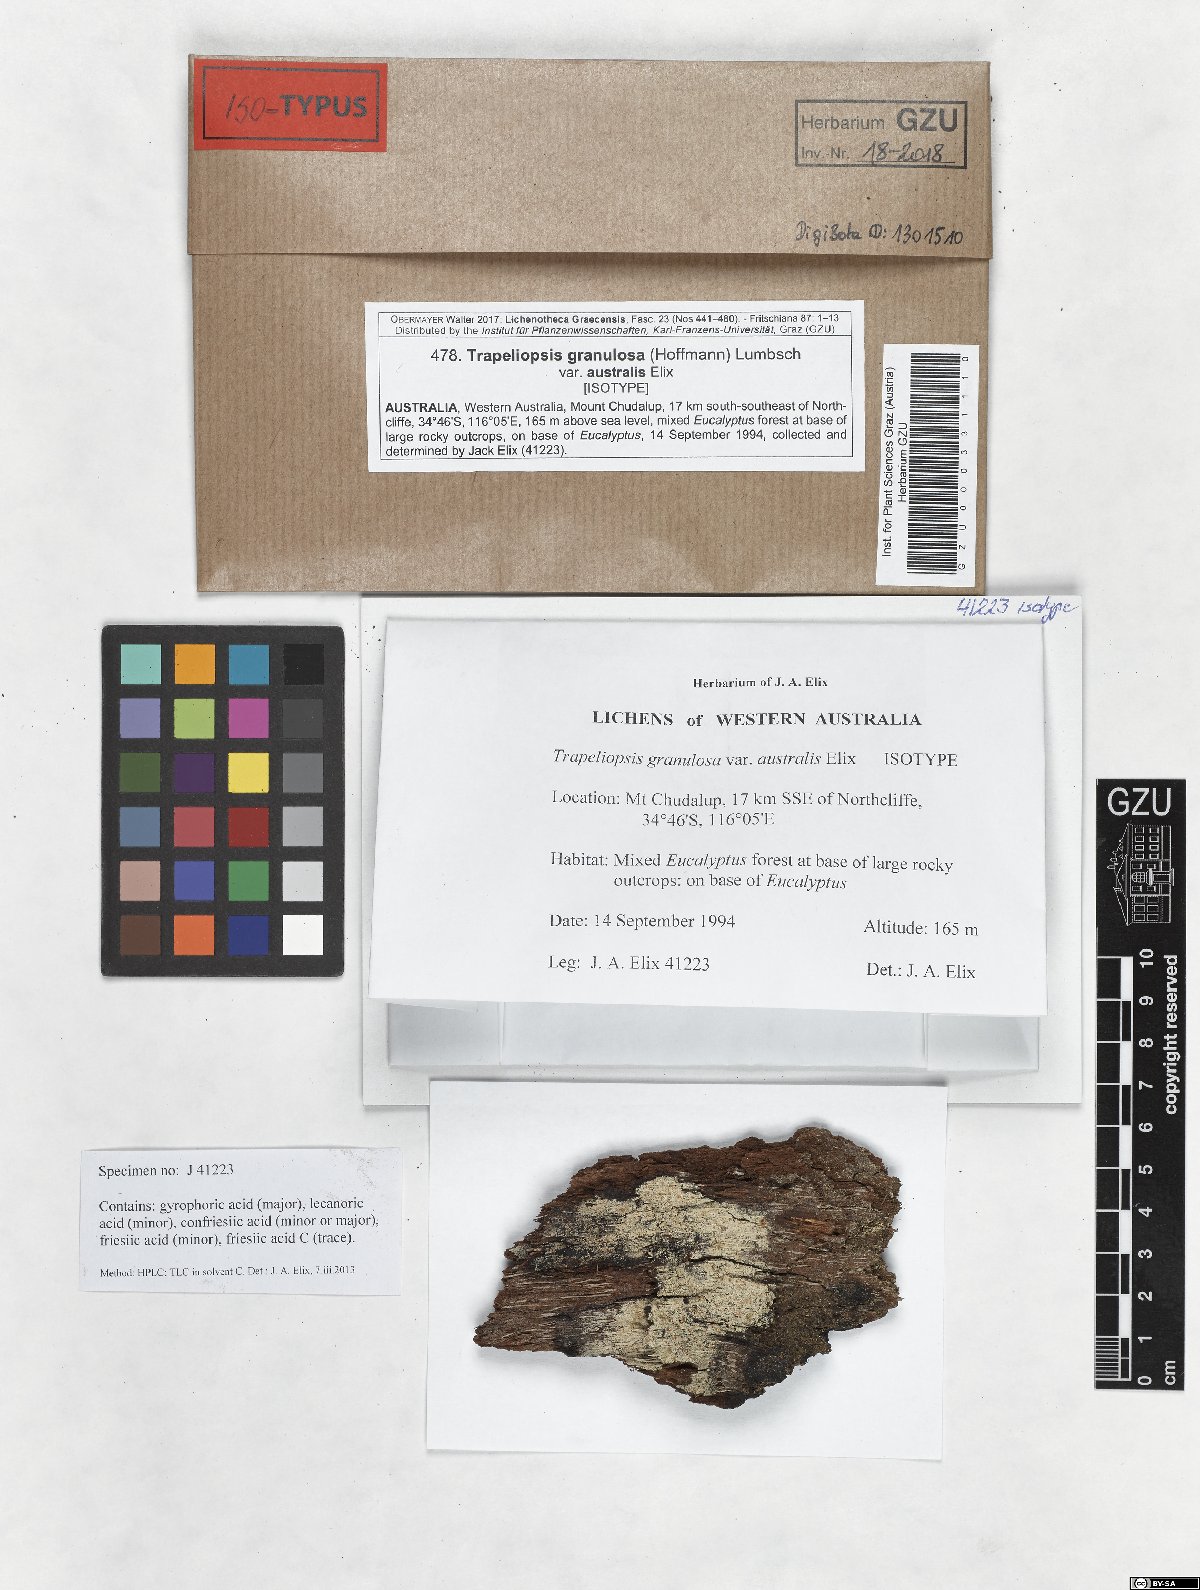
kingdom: Fungi
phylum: Ascomycota
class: Lecanoromycetes
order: Baeomycetales
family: Trapeliaceae
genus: Trapeliopsis
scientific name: Trapeliopsis granulosa
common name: Granular mottled-disk lichen
